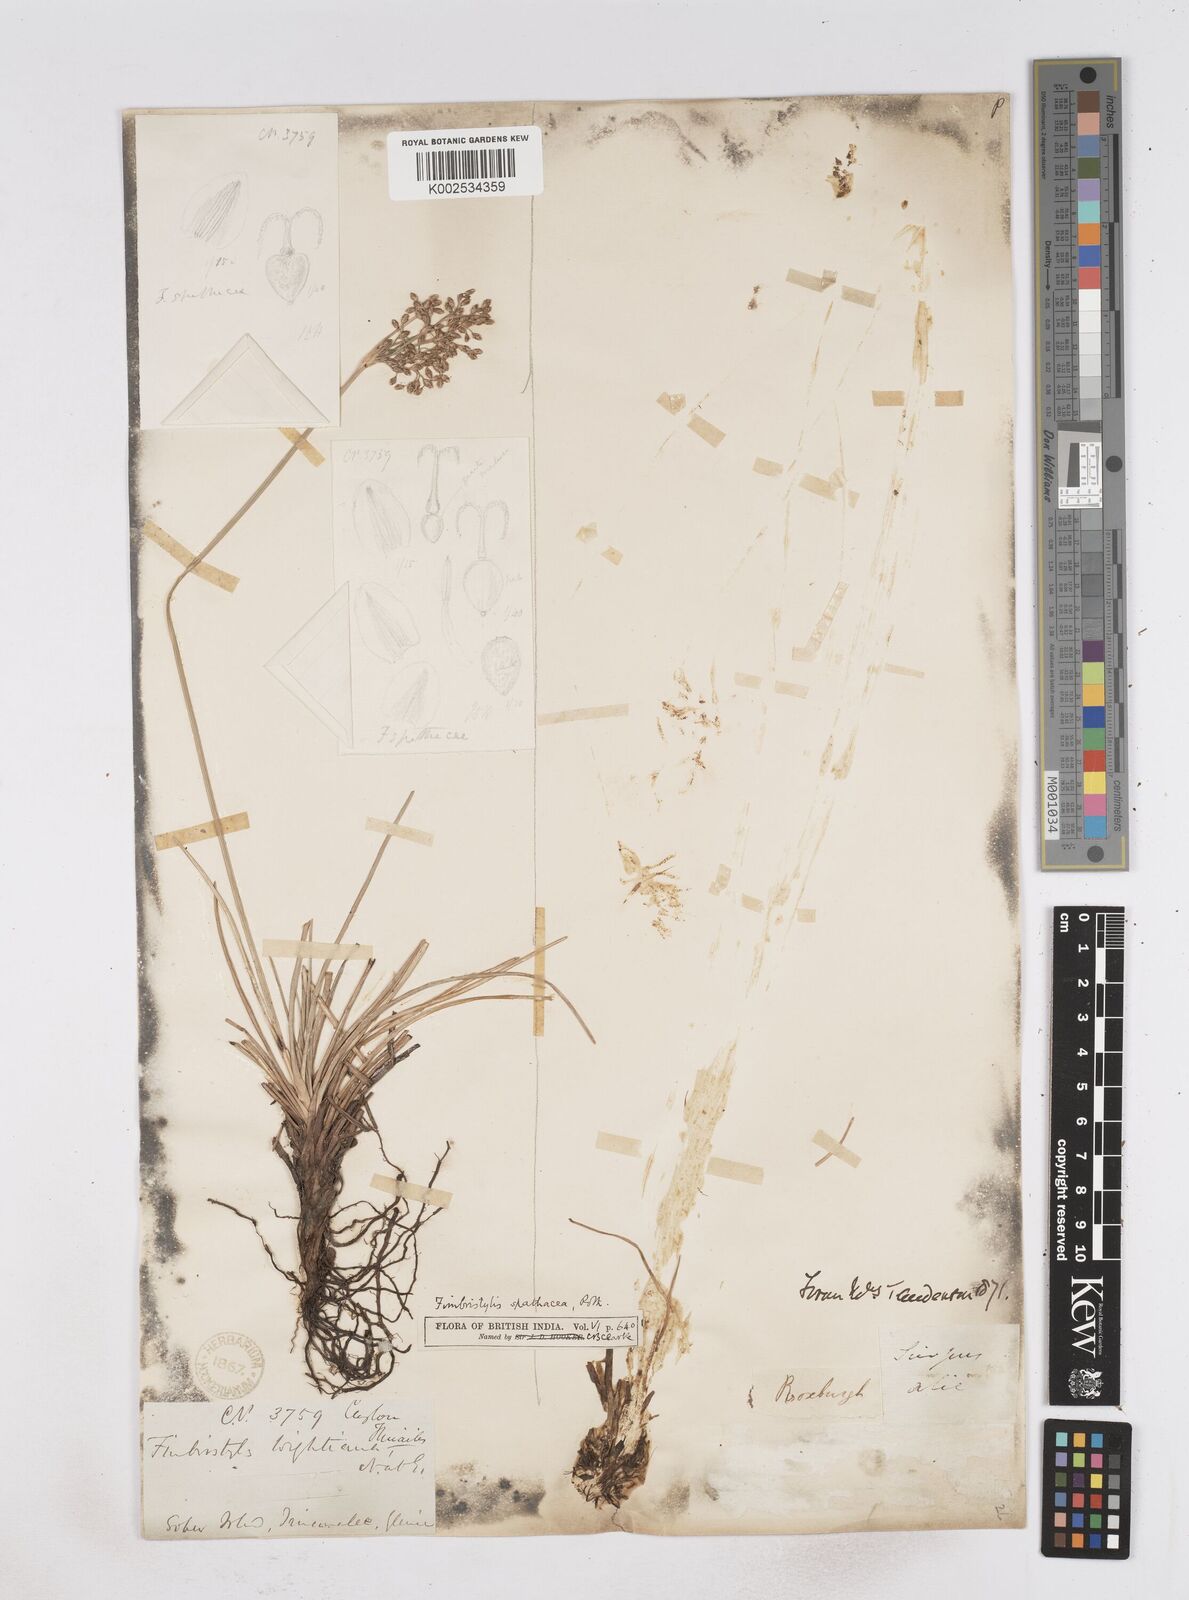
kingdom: Plantae
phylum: Tracheophyta
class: Liliopsida
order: Poales
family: Cyperaceae
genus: Fimbristylis
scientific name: Fimbristylis cymosa
